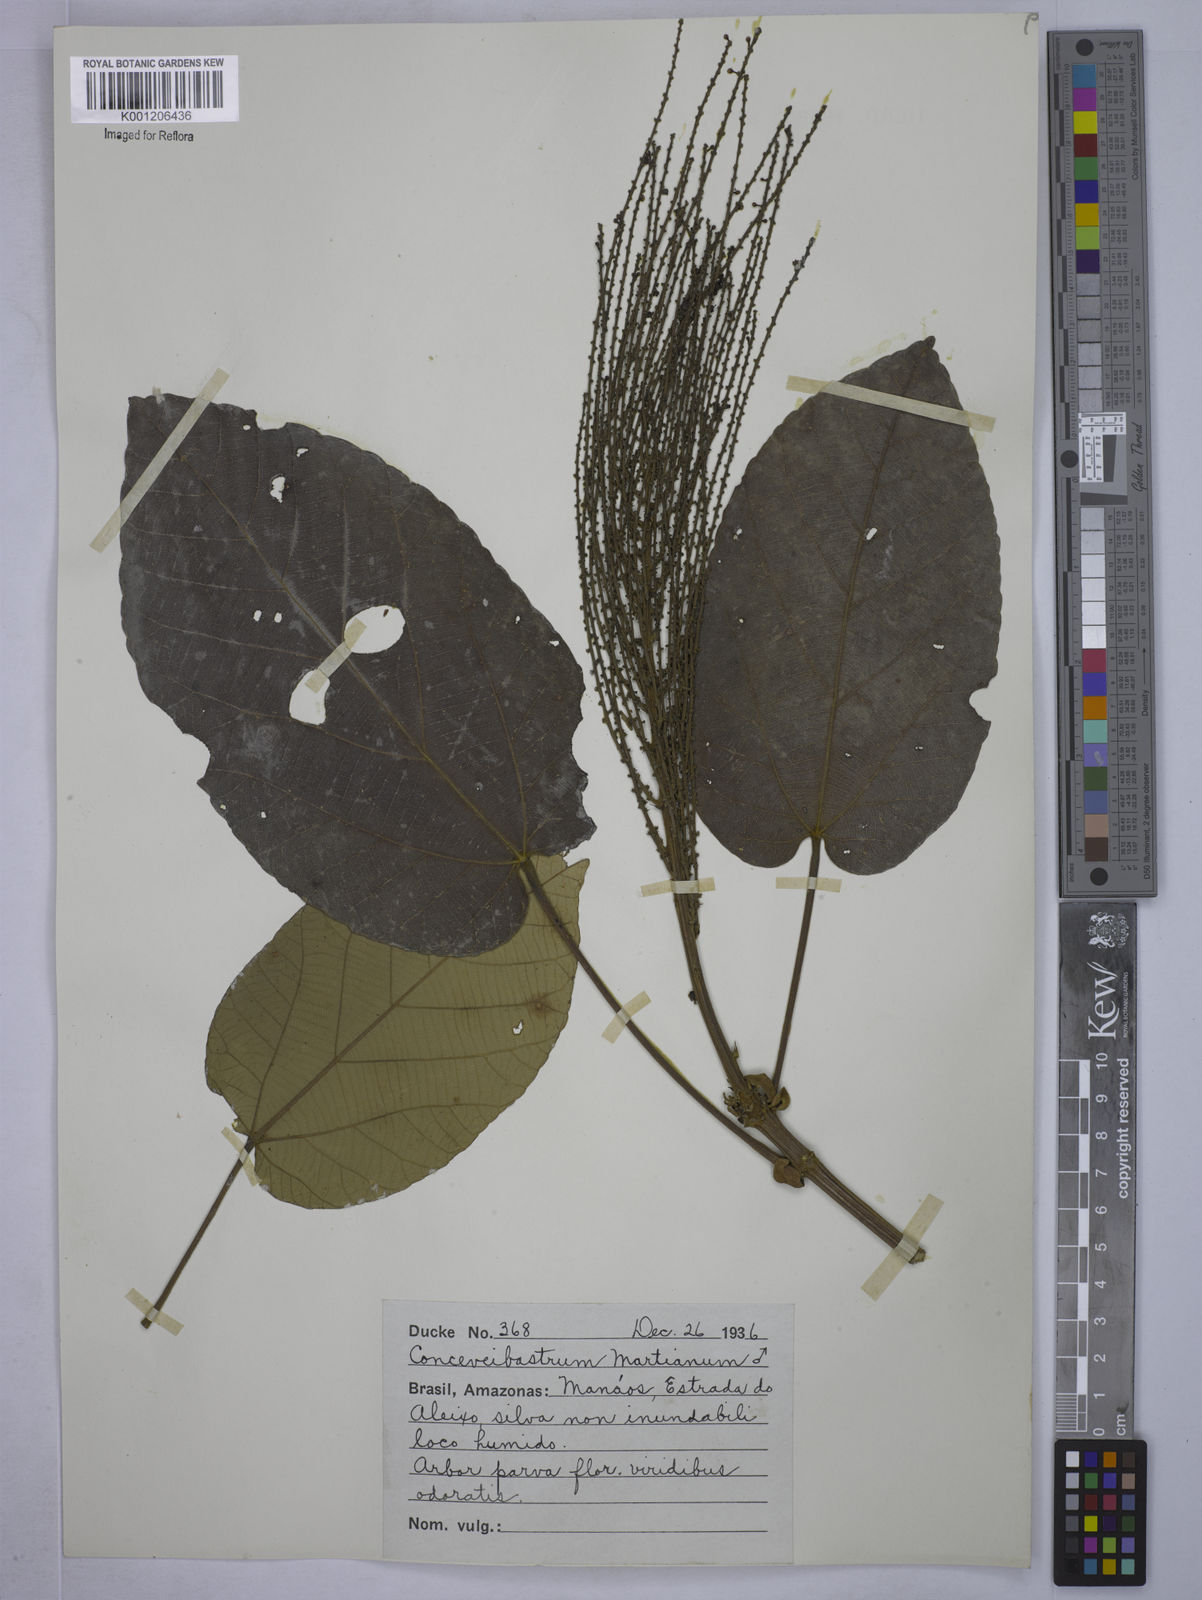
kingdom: Plantae
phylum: Tracheophyta
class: Magnoliopsida
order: Malpighiales
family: Euphorbiaceae
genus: Conceveiba
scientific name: Conceveiba martiana
